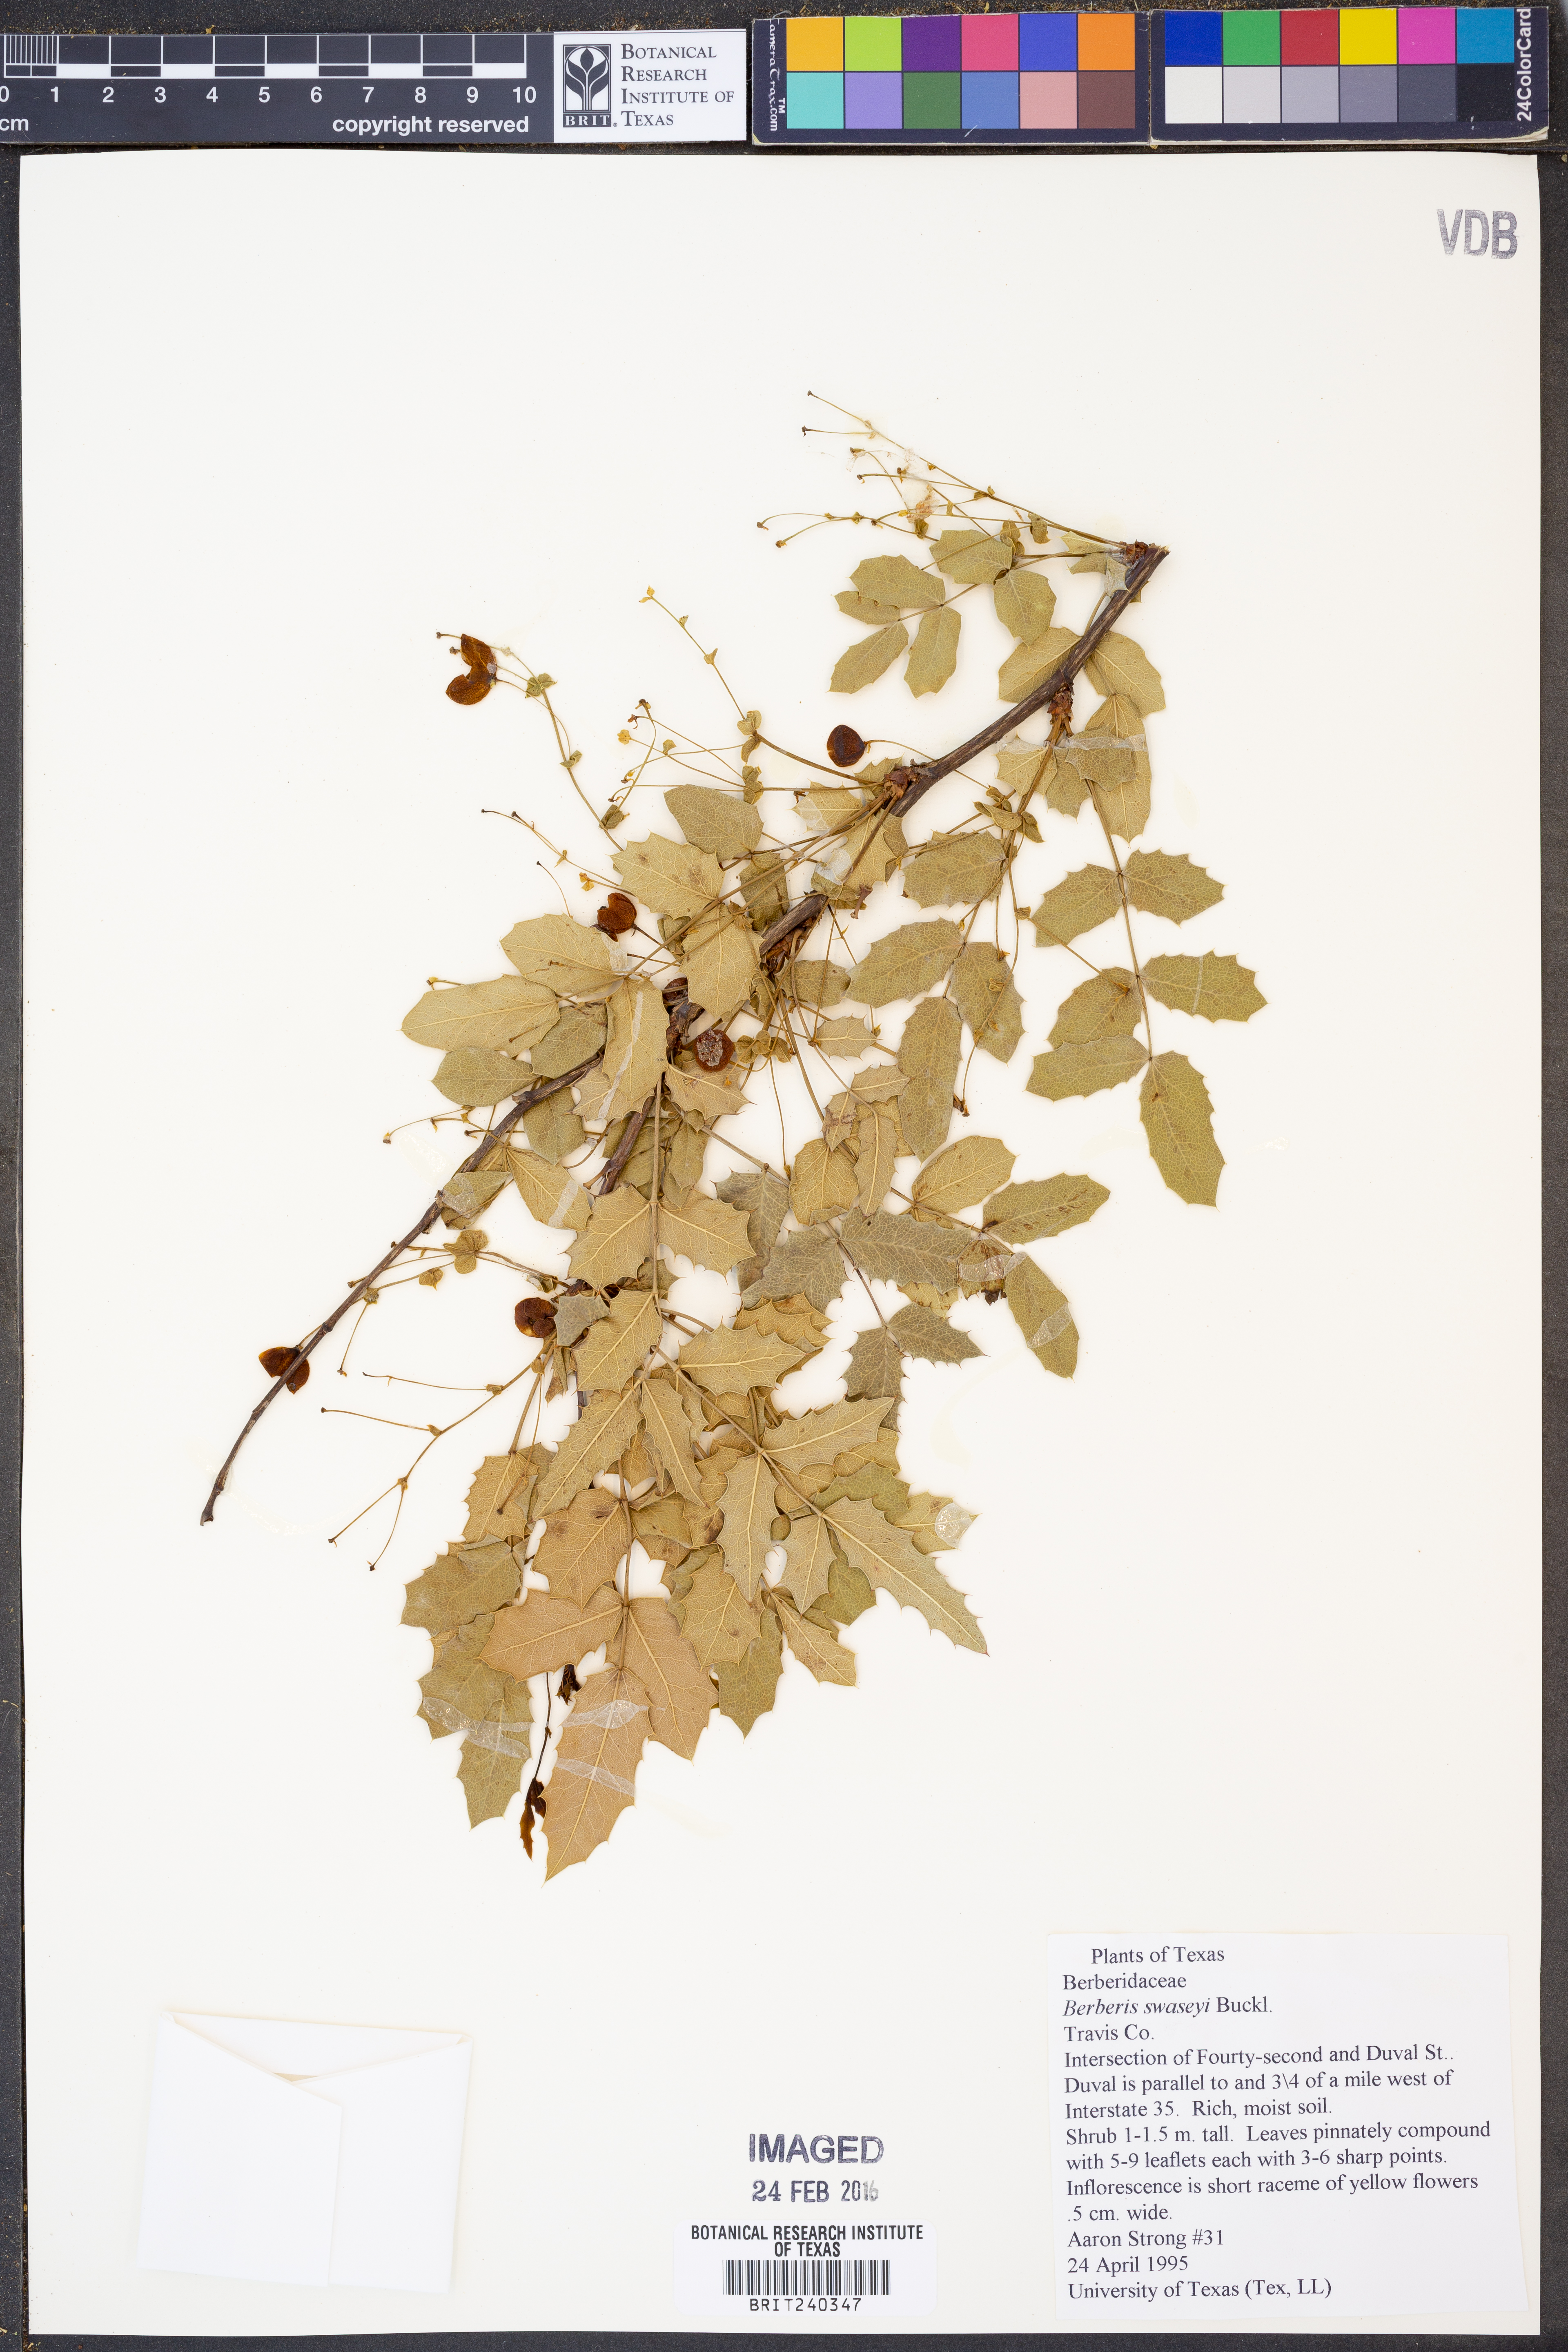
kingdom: Plantae
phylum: Tracheophyta
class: Magnoliopsida
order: Ranunculales
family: Berberidaceae
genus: Berberis
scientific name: Berberis swaseyi
